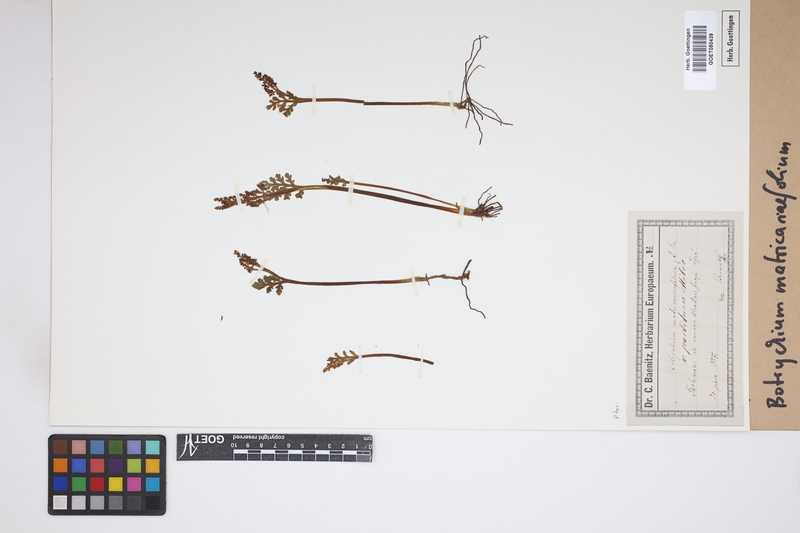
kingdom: Plantae
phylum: Tracheophyta
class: Polypodiopsida
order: Ophioglossales
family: Ophioglossaceae
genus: Botrychium
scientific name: Botrychium matricariifolium
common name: Branched moonwort
